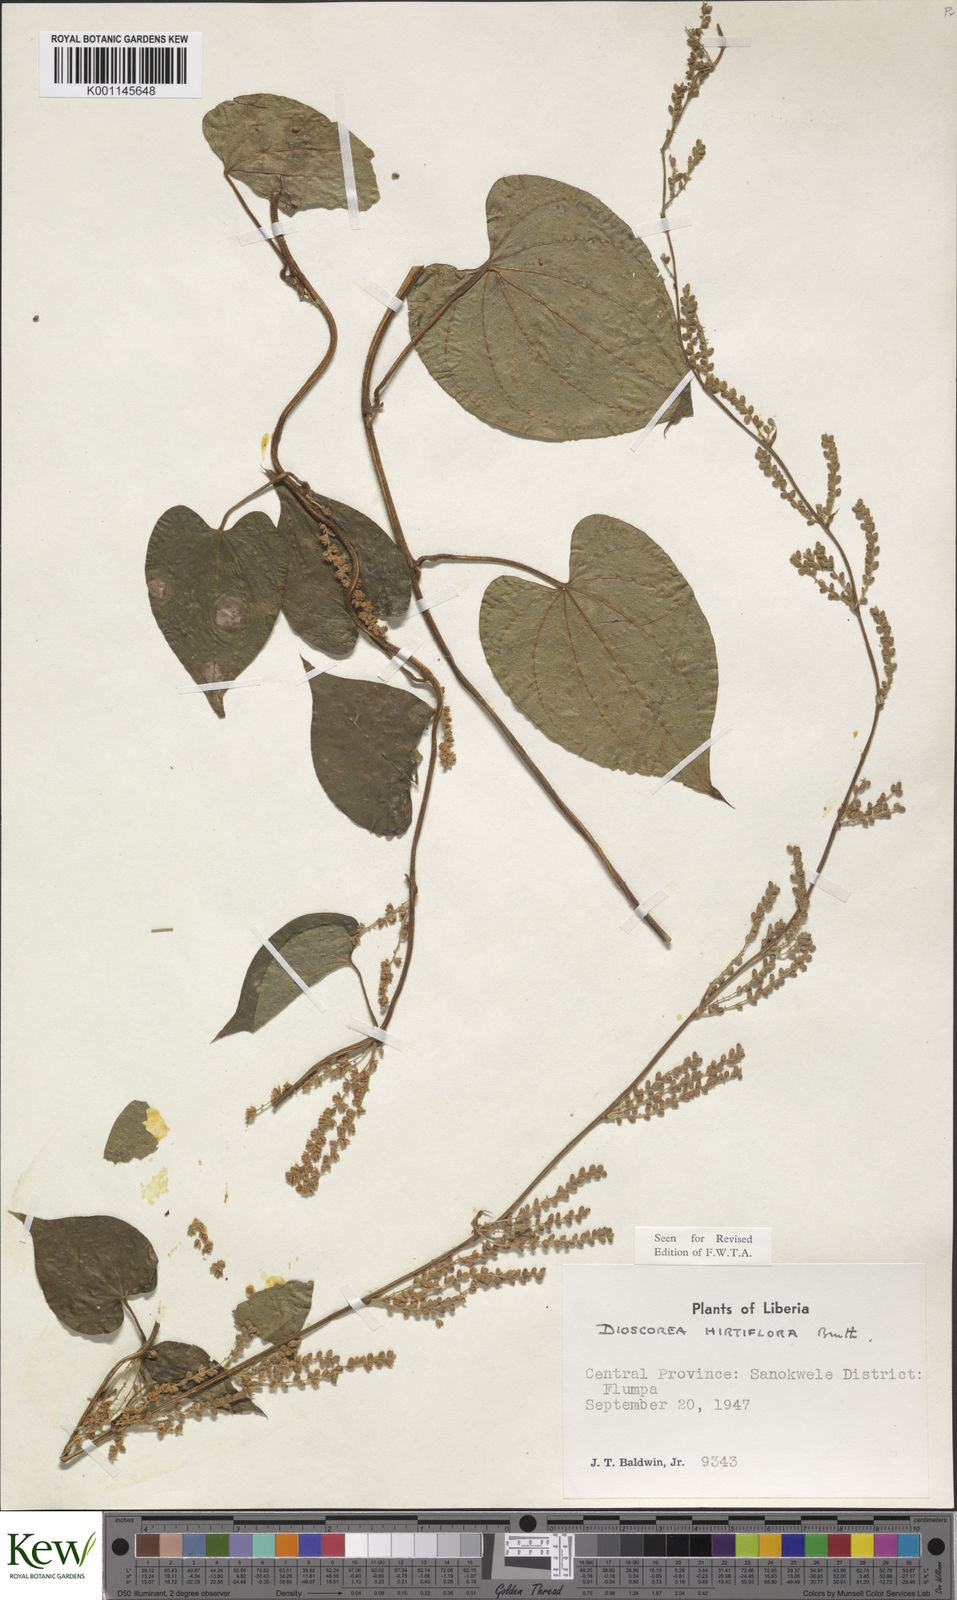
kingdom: Plantae
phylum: Tracheophyta
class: Liliopsida
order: Dioscoreales
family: Dioscoreaceae
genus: Dioscorea
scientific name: Dioscorea hirtiflora
